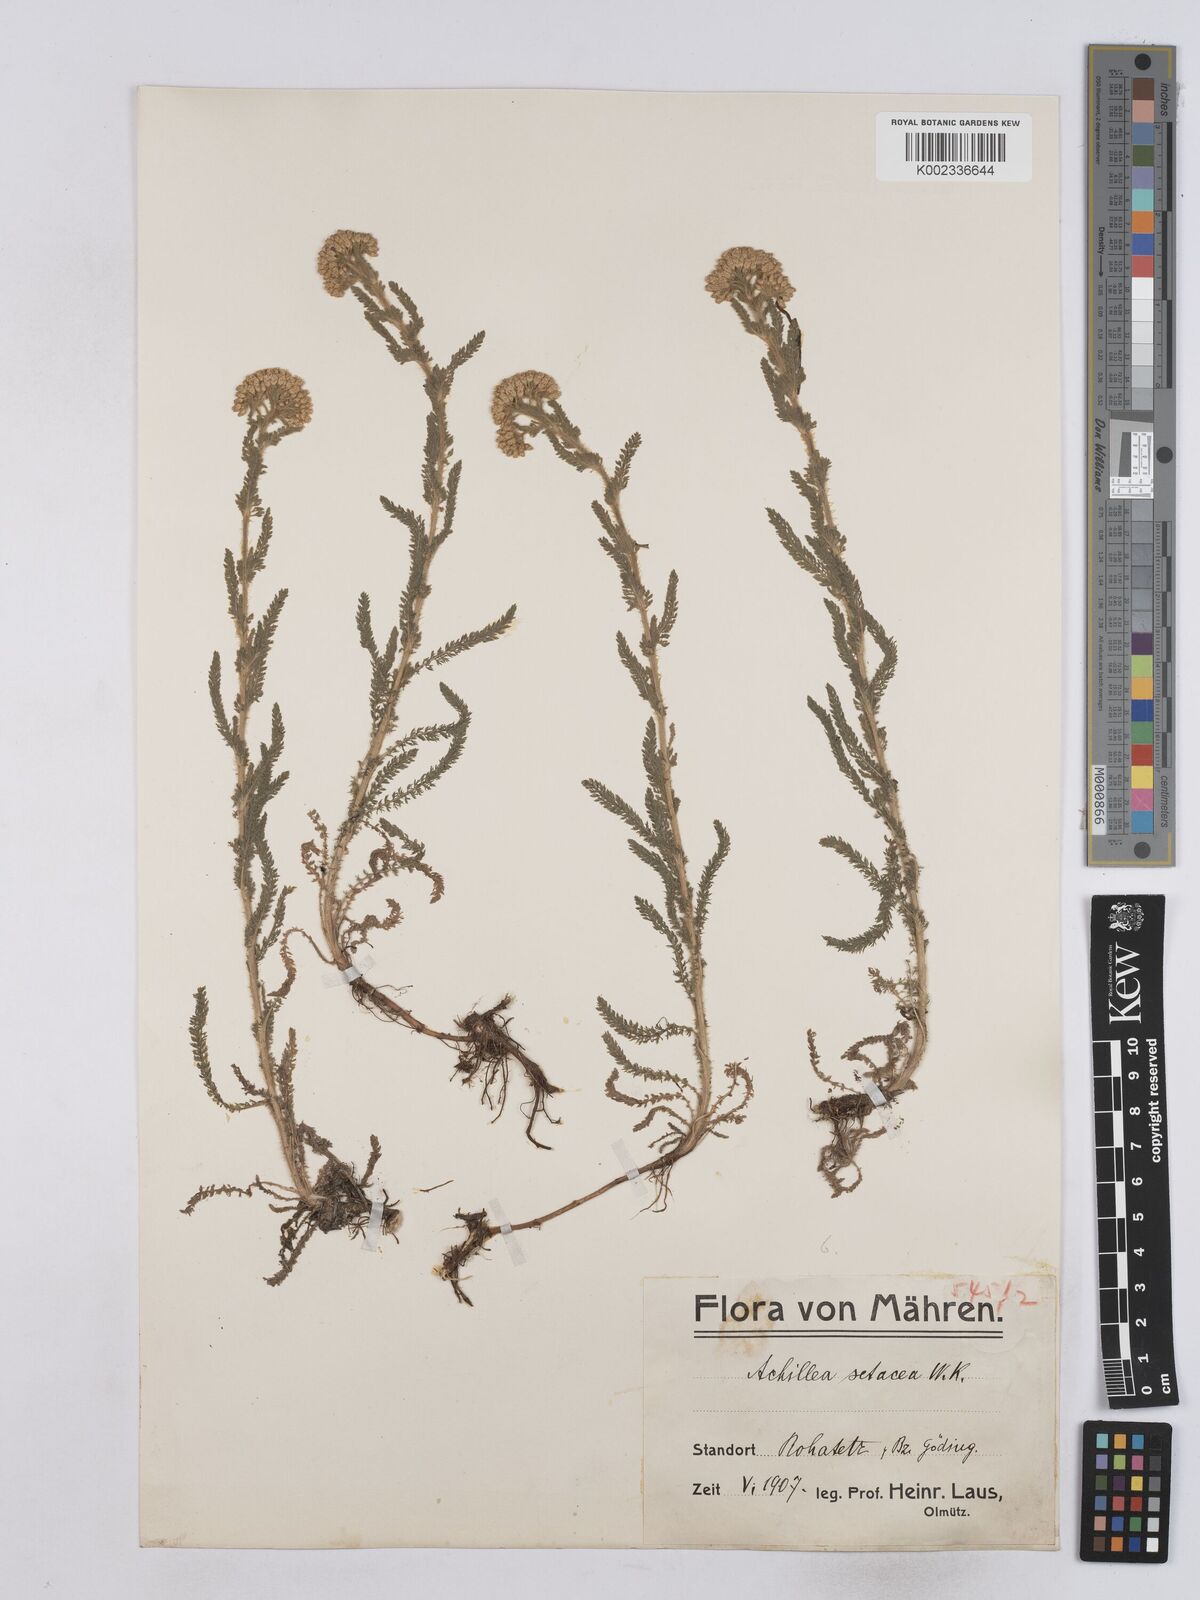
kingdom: Plantae
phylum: Tracheophyta
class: Magnoliopsida
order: Asterales
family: Asteraceae
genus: Achillea
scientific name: Achillea setacea
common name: Bristly yarrow
